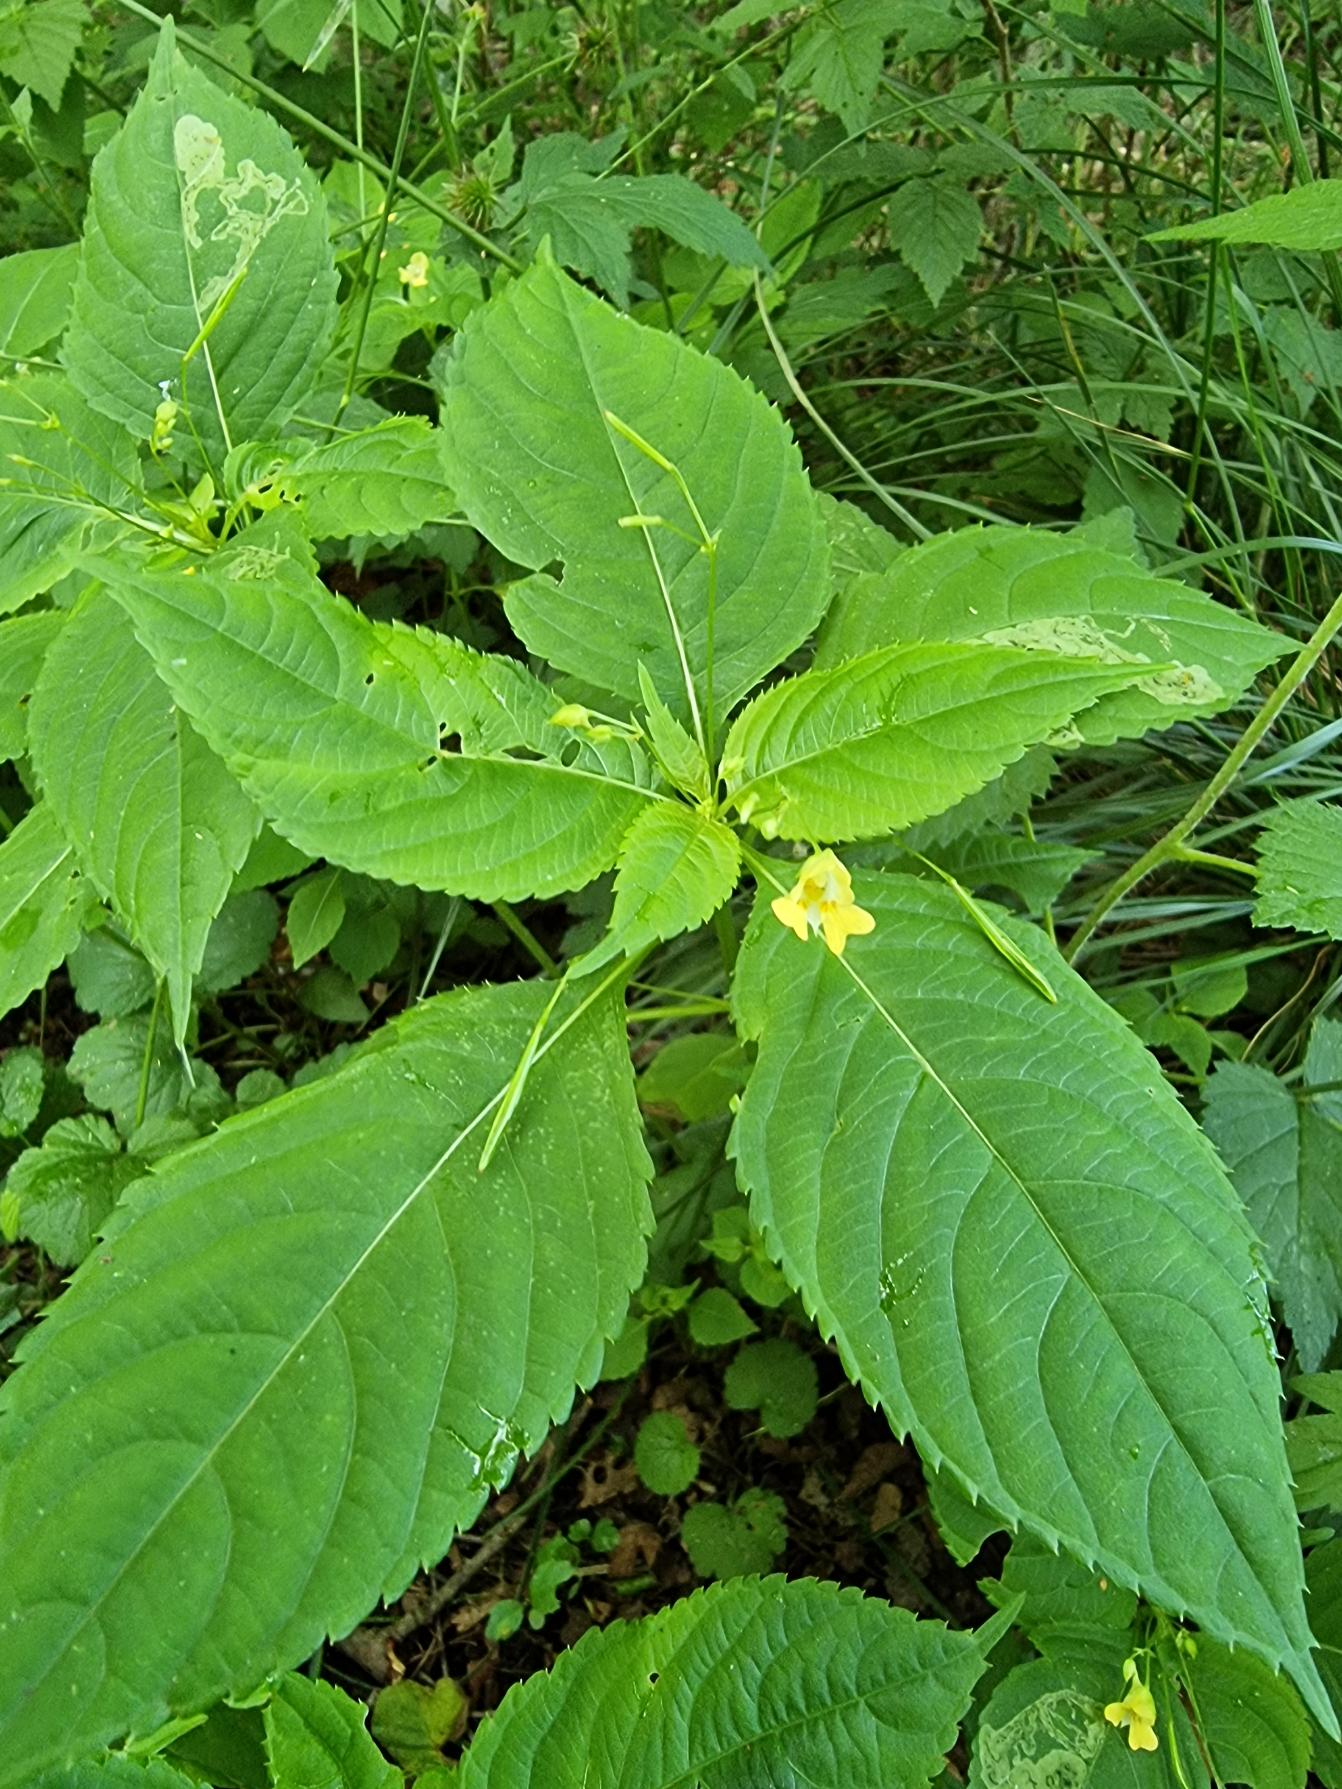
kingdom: Plantae
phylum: Tracheophyta
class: Magnoliopsida
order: Ericales
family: Balsaminaceae
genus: Impatiens
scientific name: Impatiens parviflora
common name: Småblomstret balsamin
